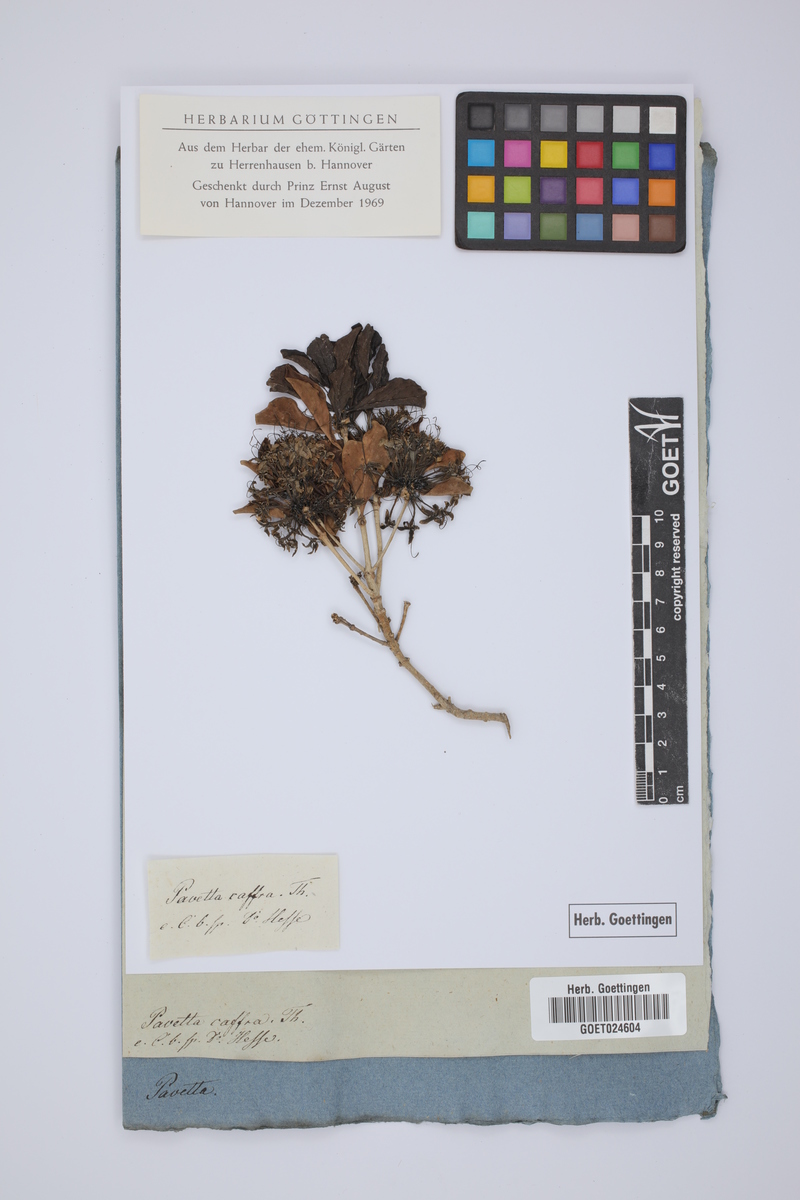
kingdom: Plantae
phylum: Tracheophyta
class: Magnoliopsida
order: Gentianales
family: Rubiaceae
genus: Pavetta
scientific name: Pavetta capensis
